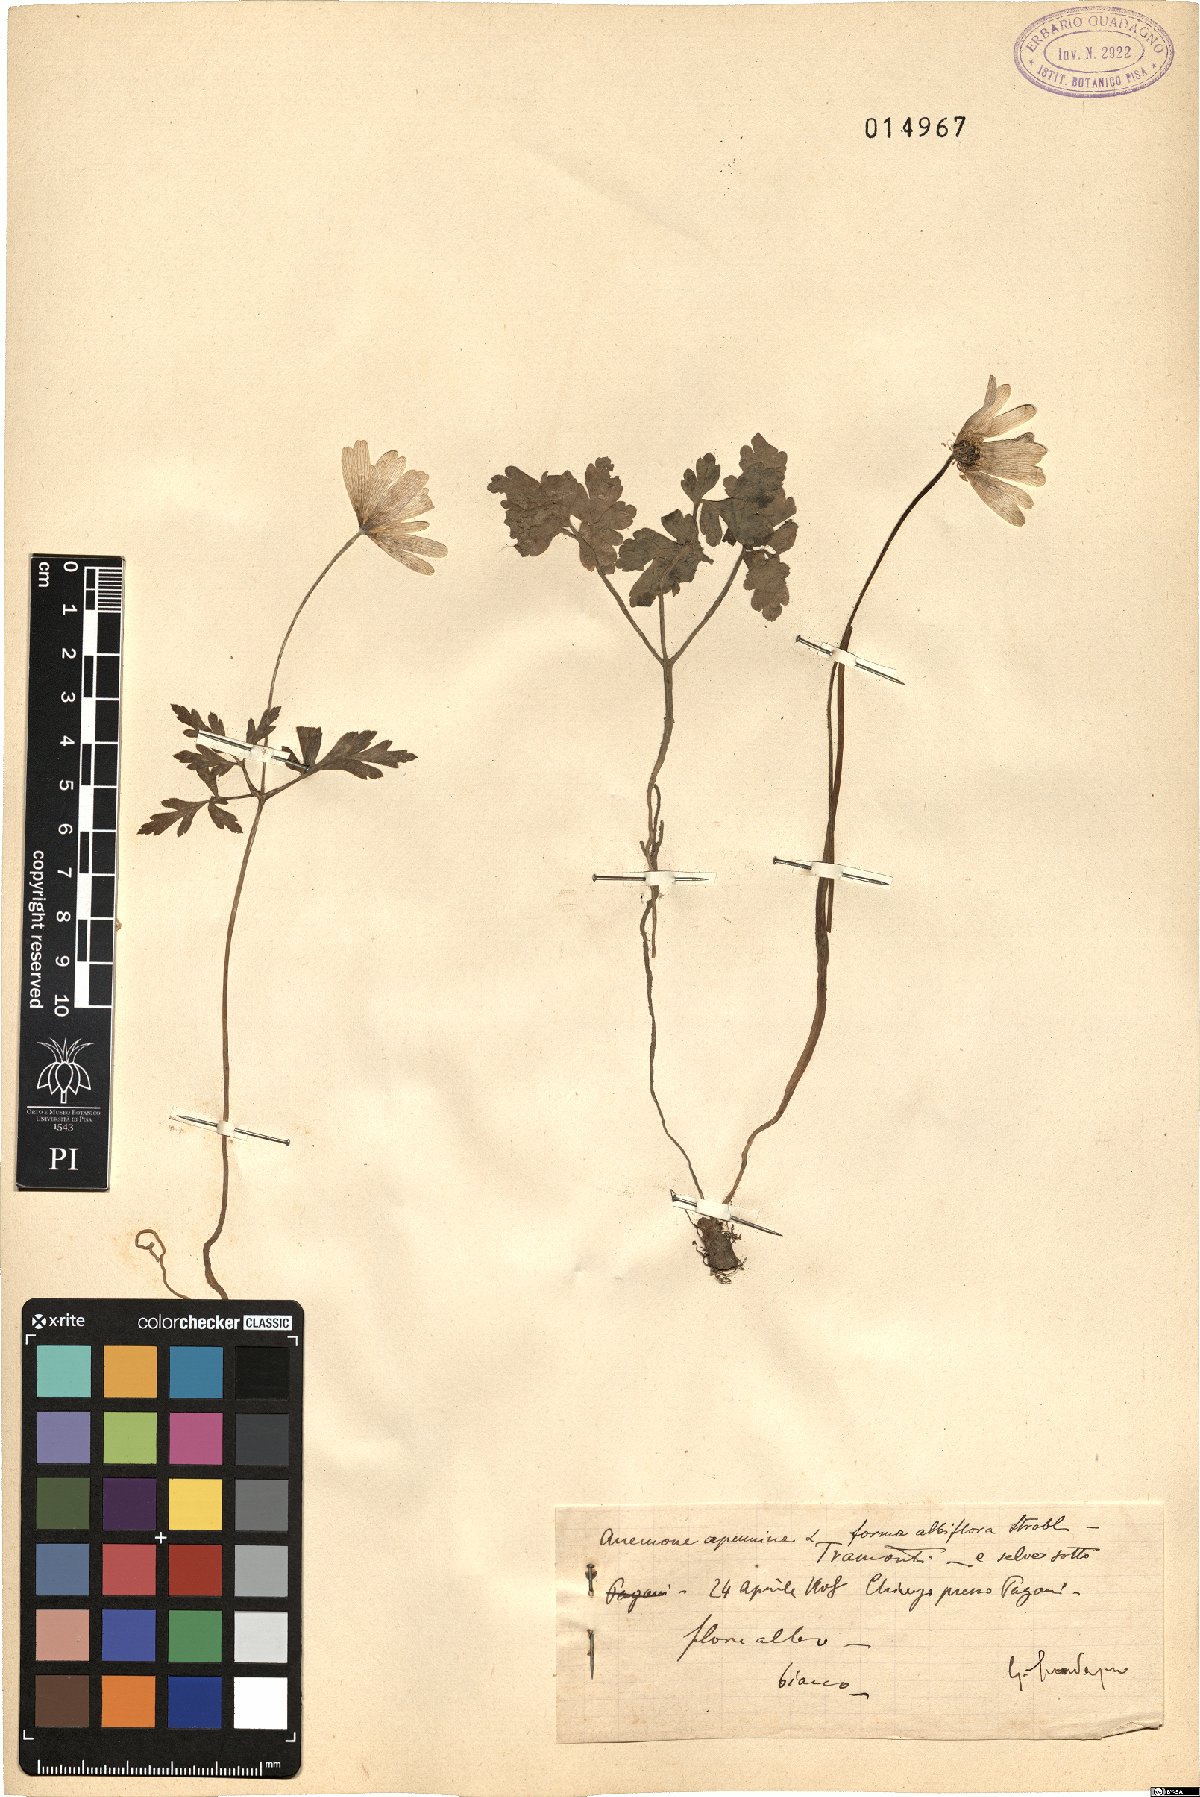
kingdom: Plantae
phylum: Tracheophyta
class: Magnoliopsida
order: Ranunculales
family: Ranunculaceae
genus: Anemone
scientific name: Anemone apennina
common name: Blue anemone
